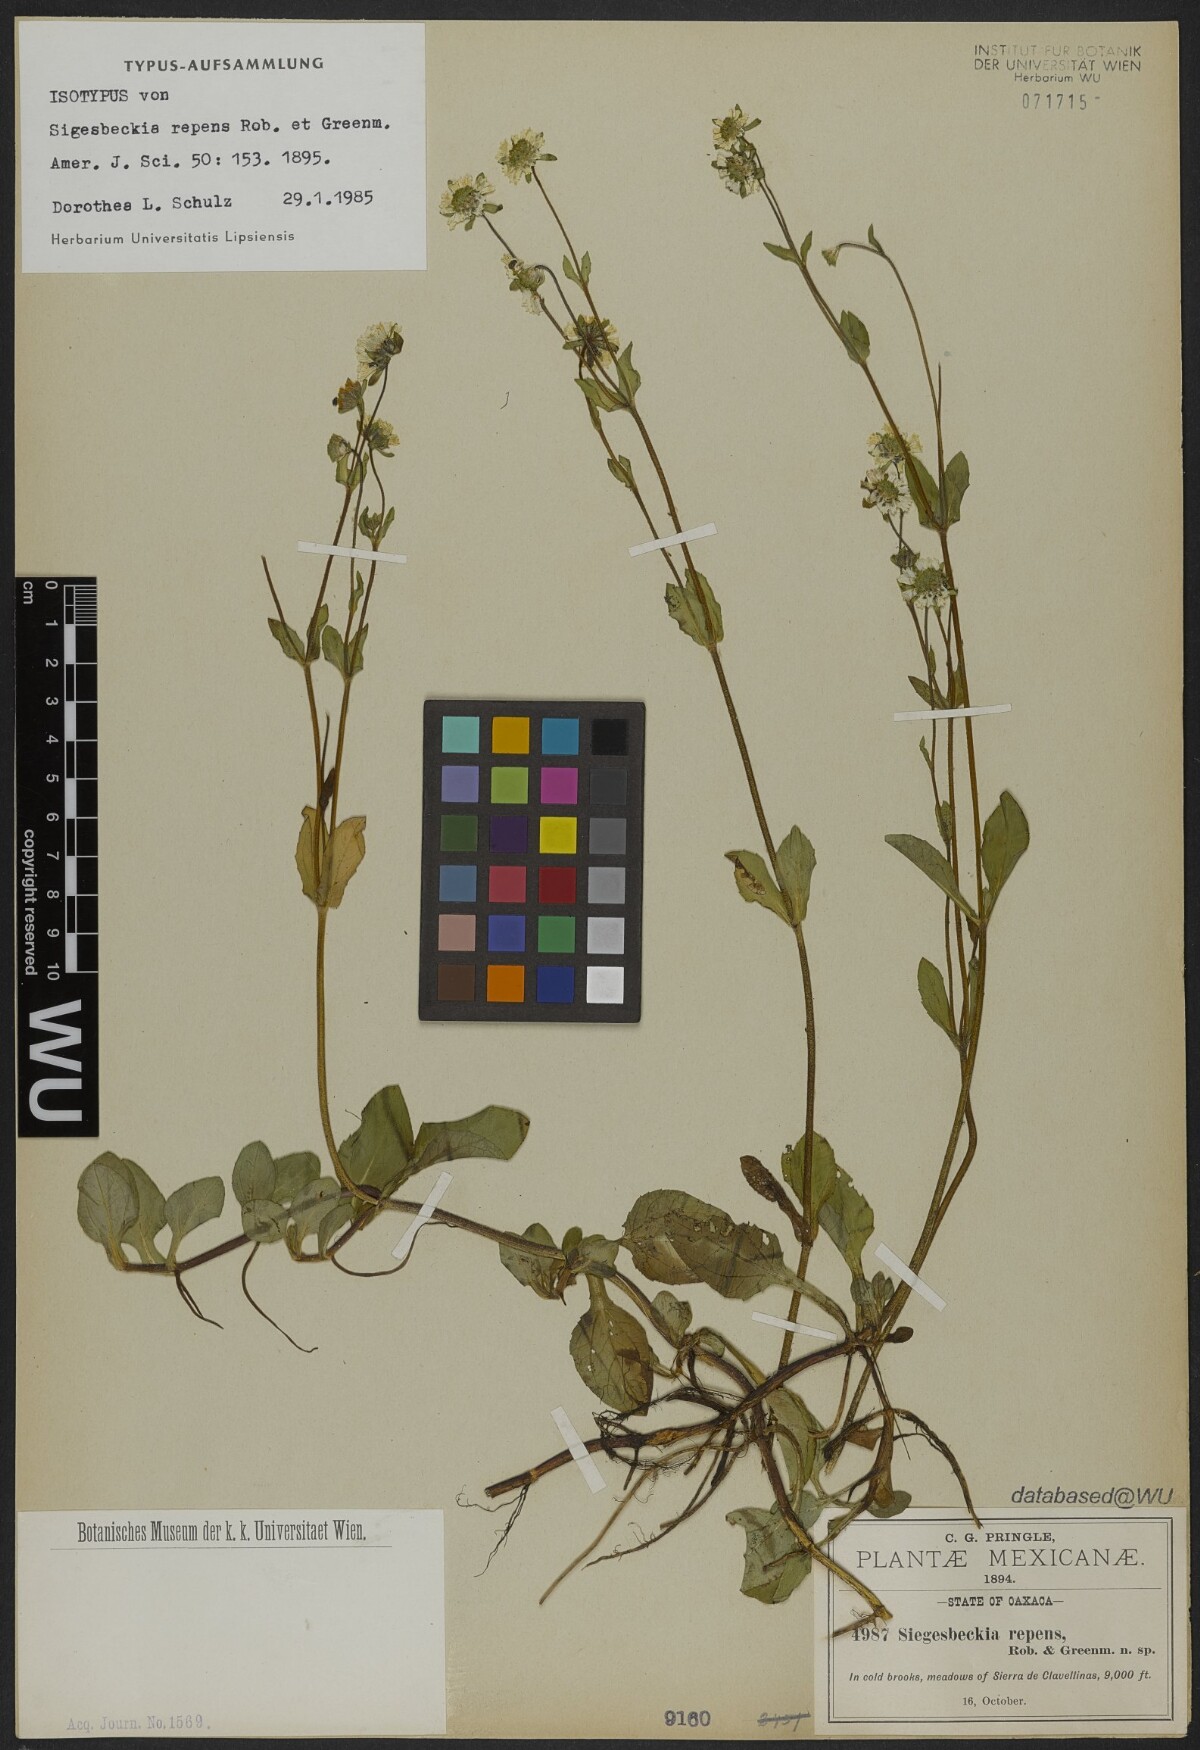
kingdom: Plantae
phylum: Tracheophyta
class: Magnoliopsida
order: Asterales
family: Asteraceae
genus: Sigesbeckia
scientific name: Sigesbeckia repens
